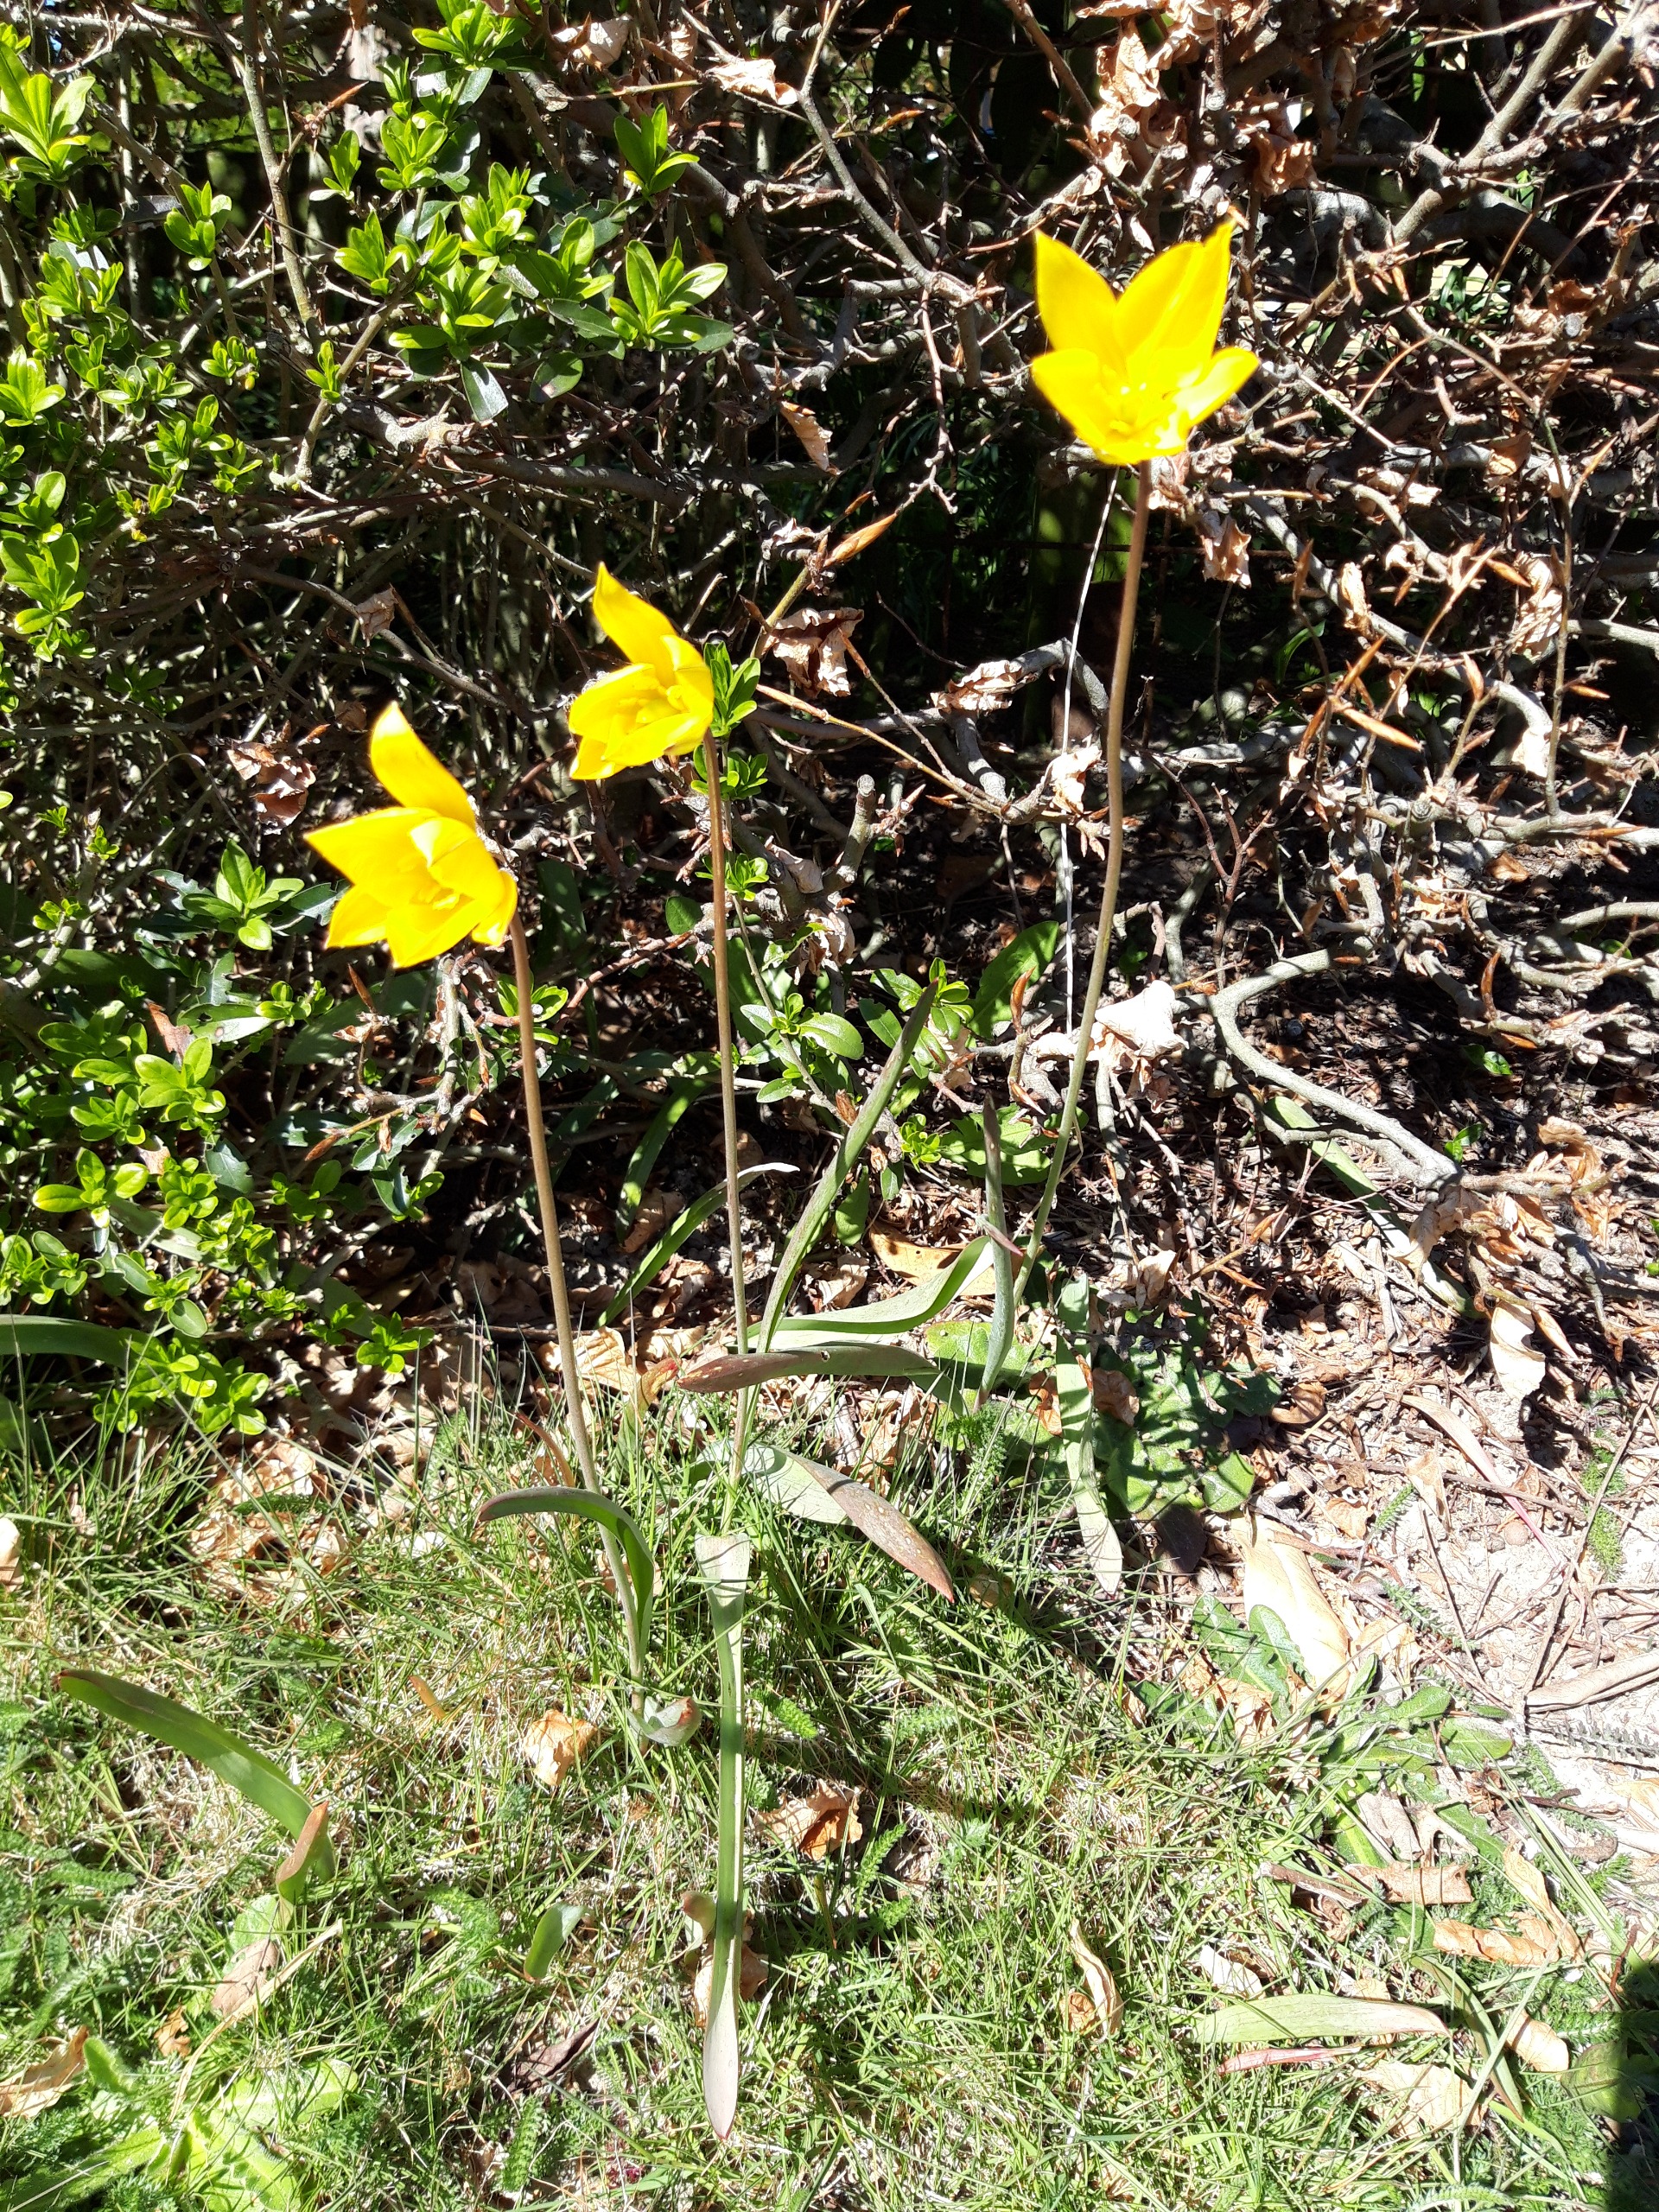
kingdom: Plantae
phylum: Tracheophyta
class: Liliopsida
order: Liliales
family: Liliaceae
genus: Tulipa
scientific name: Tulipa sylvestris
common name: Vild tulipan
